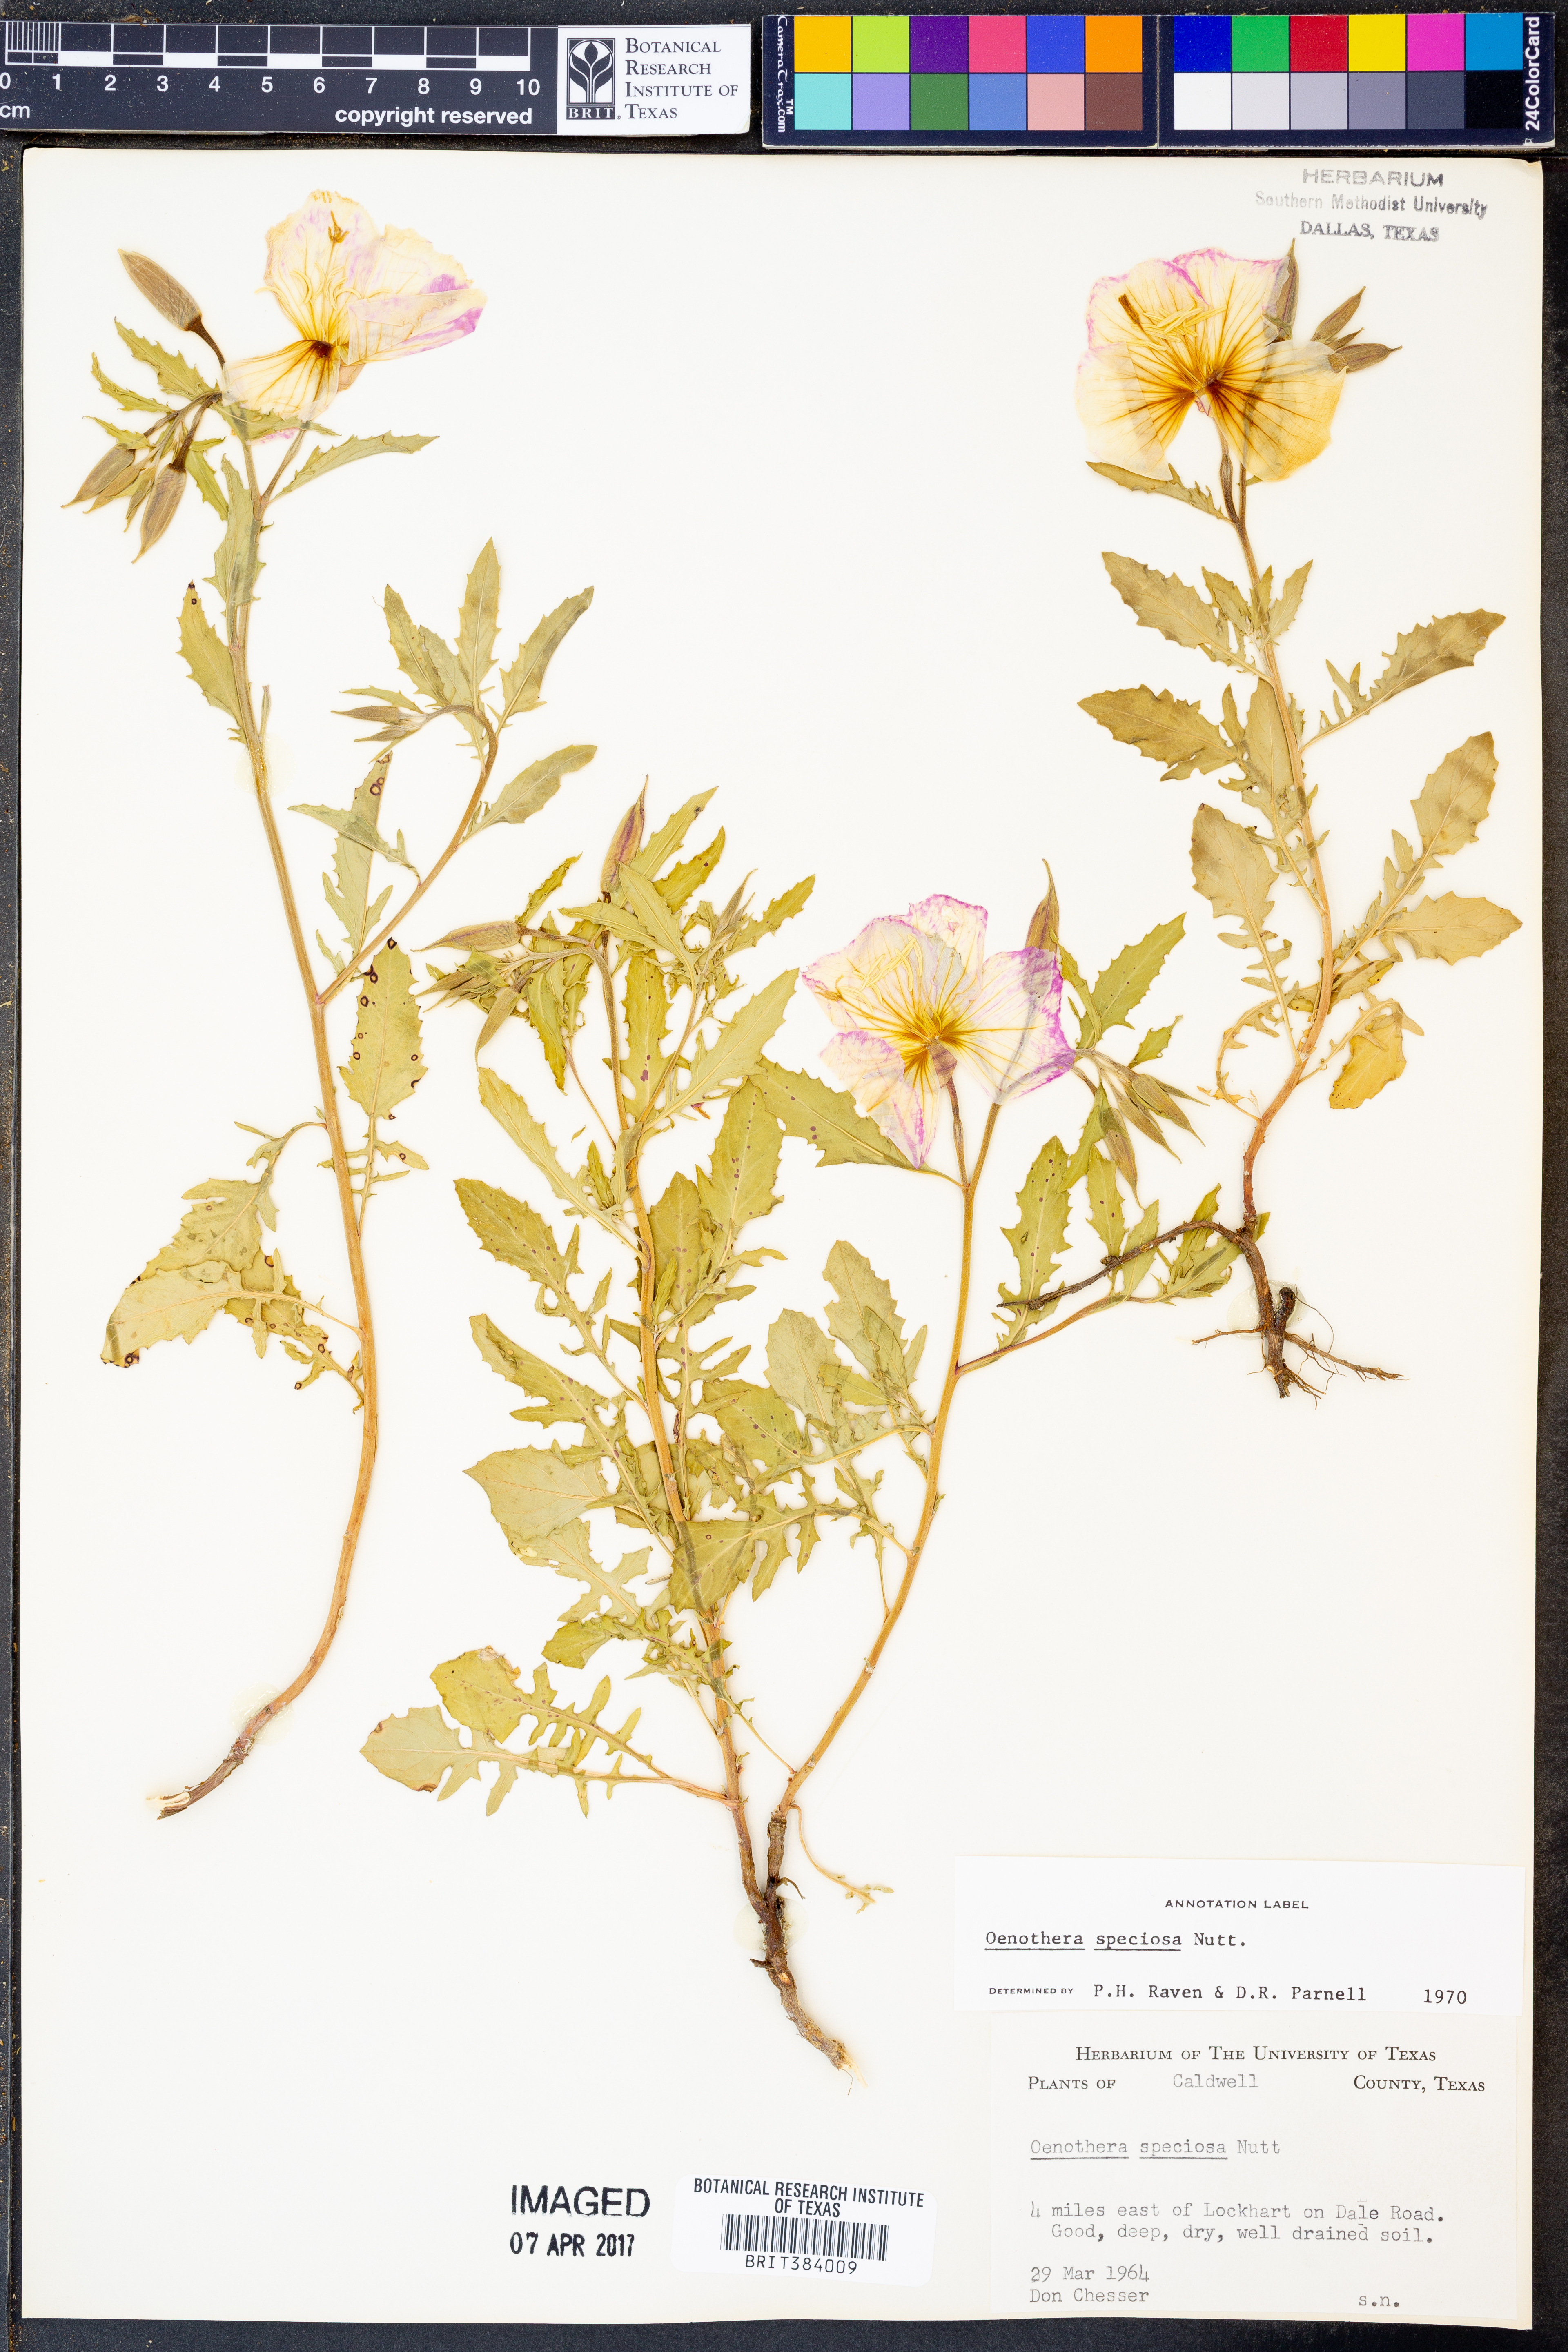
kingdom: Plantae
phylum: Tracheophyta
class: Magnoliopsida
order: Myrtales
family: Onagraceae
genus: Oenothera
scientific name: Oenothera speciosa
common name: White evening-primrose
